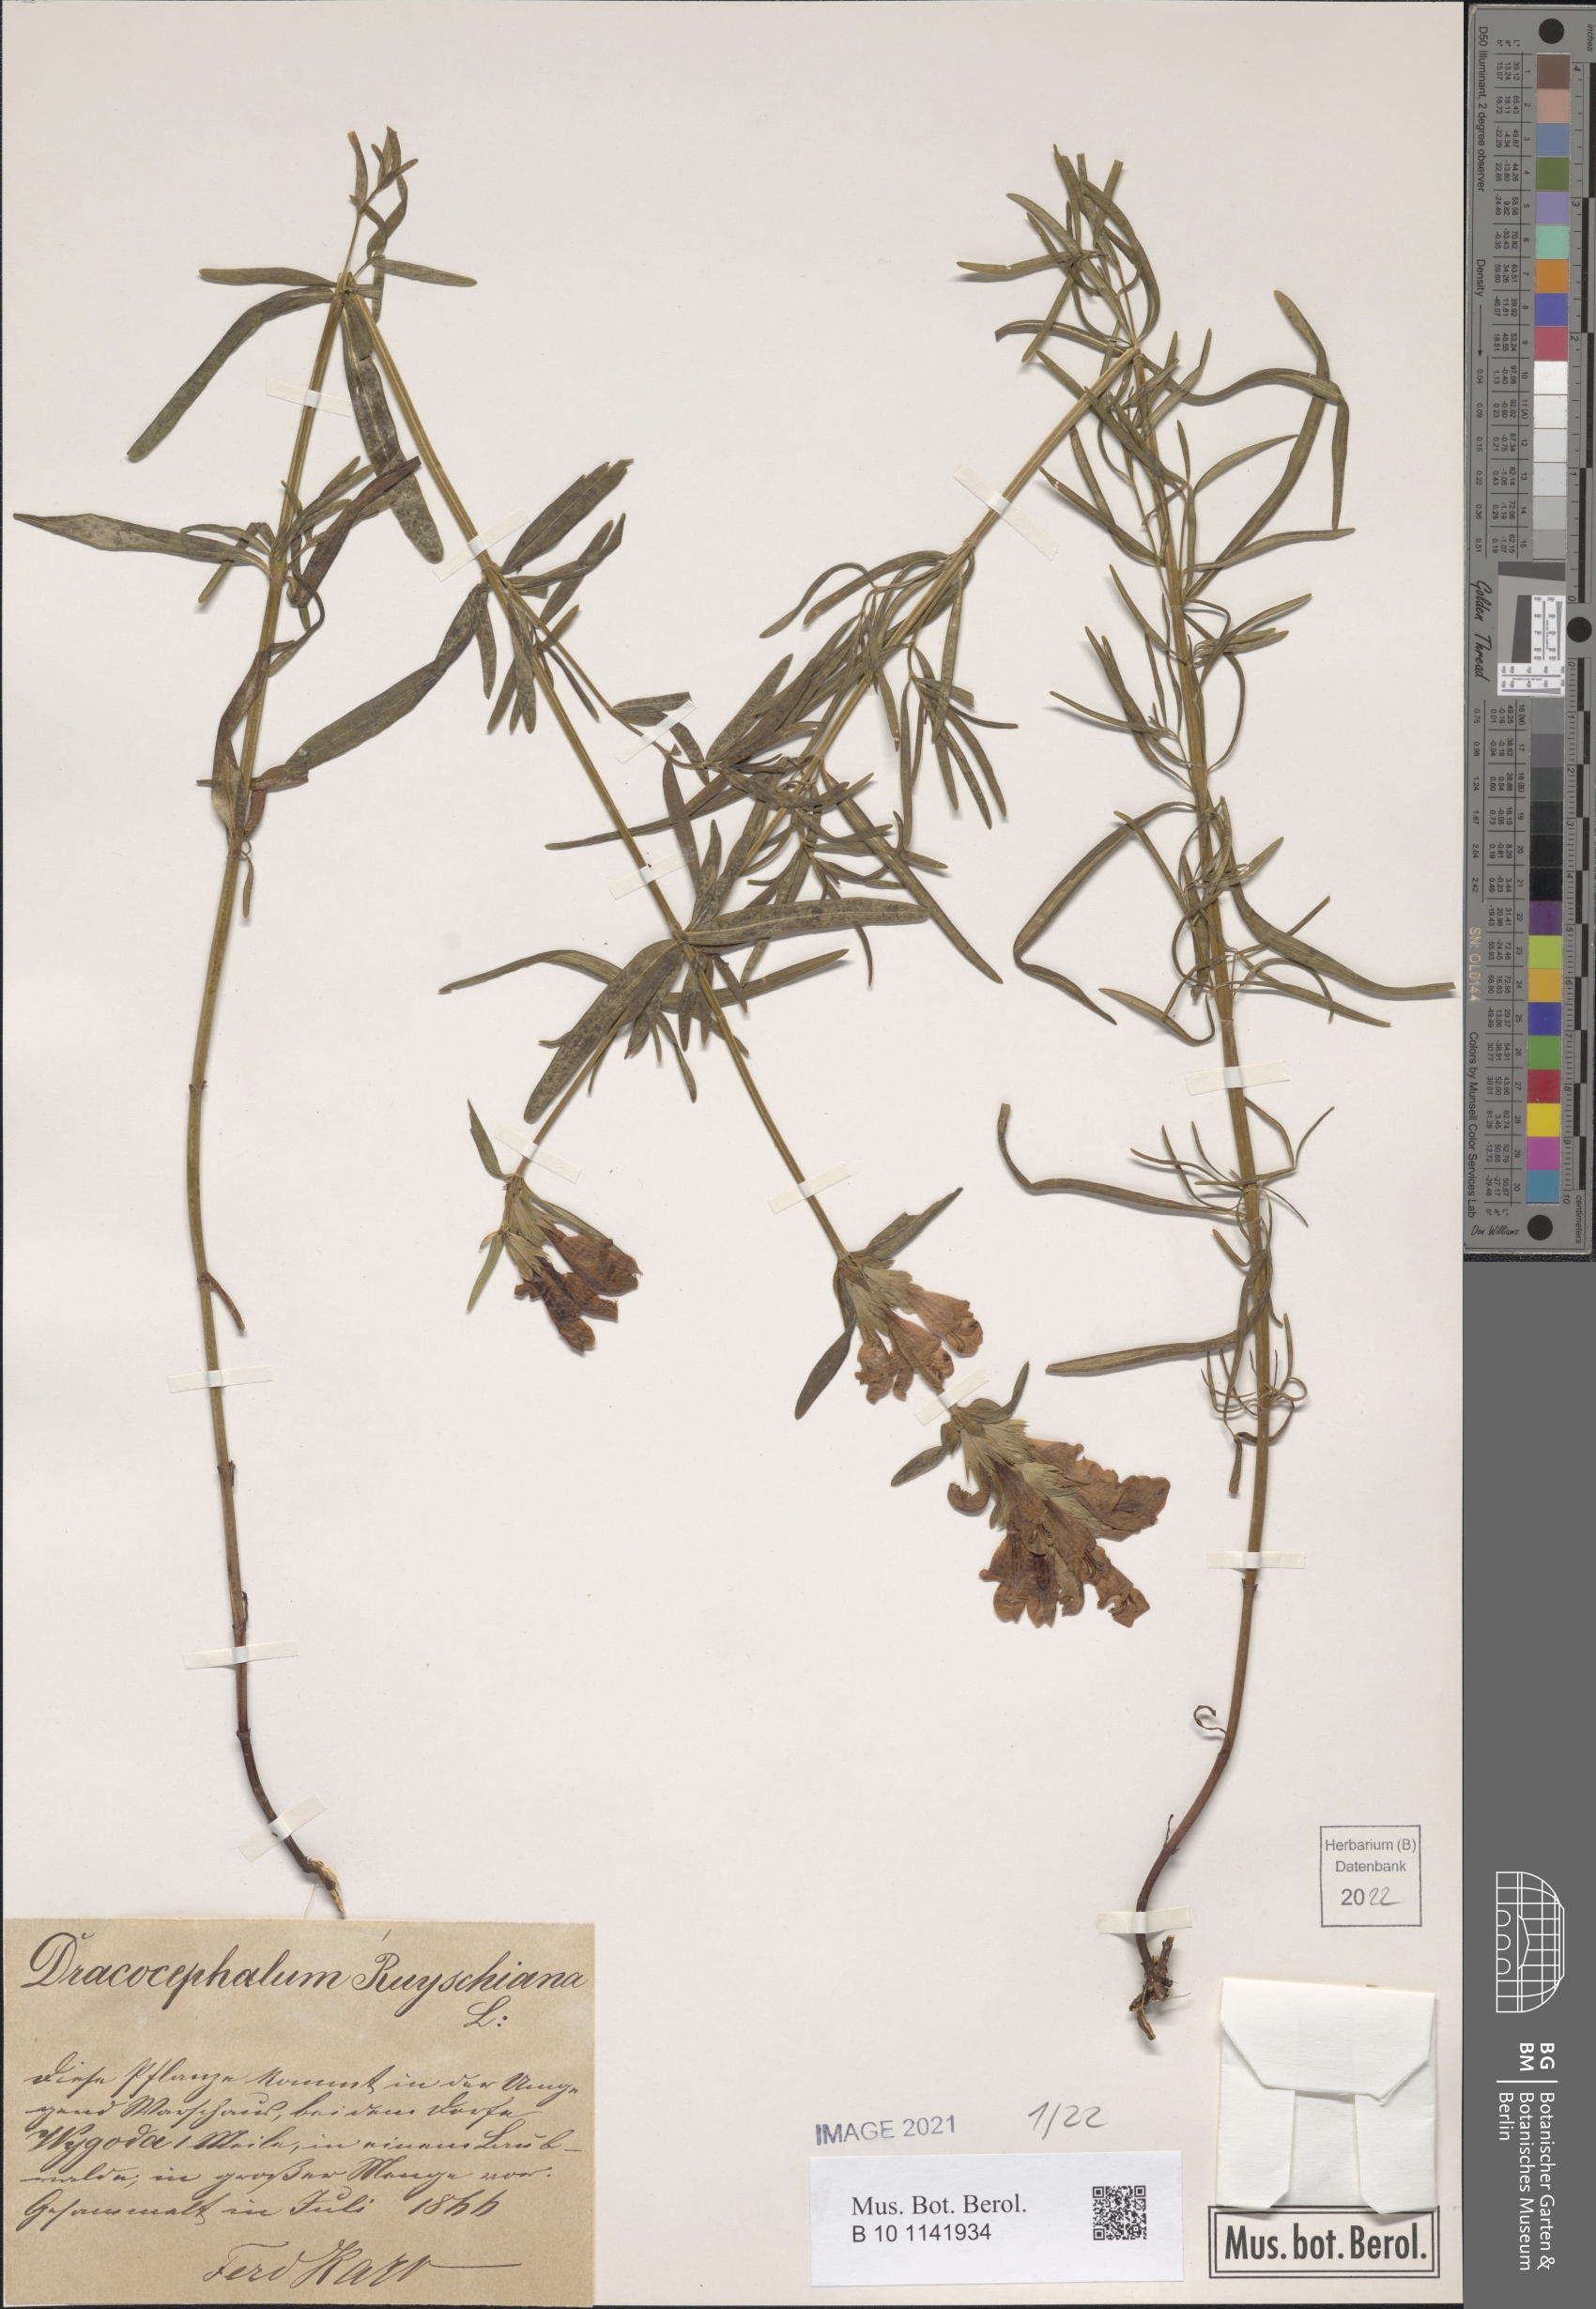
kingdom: Plantae
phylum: Tracheophyta
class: Magnoliopsida
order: Lamiales
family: Lamiaceae
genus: Dracocephalum
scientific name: Dracocephalum ruyschiana
